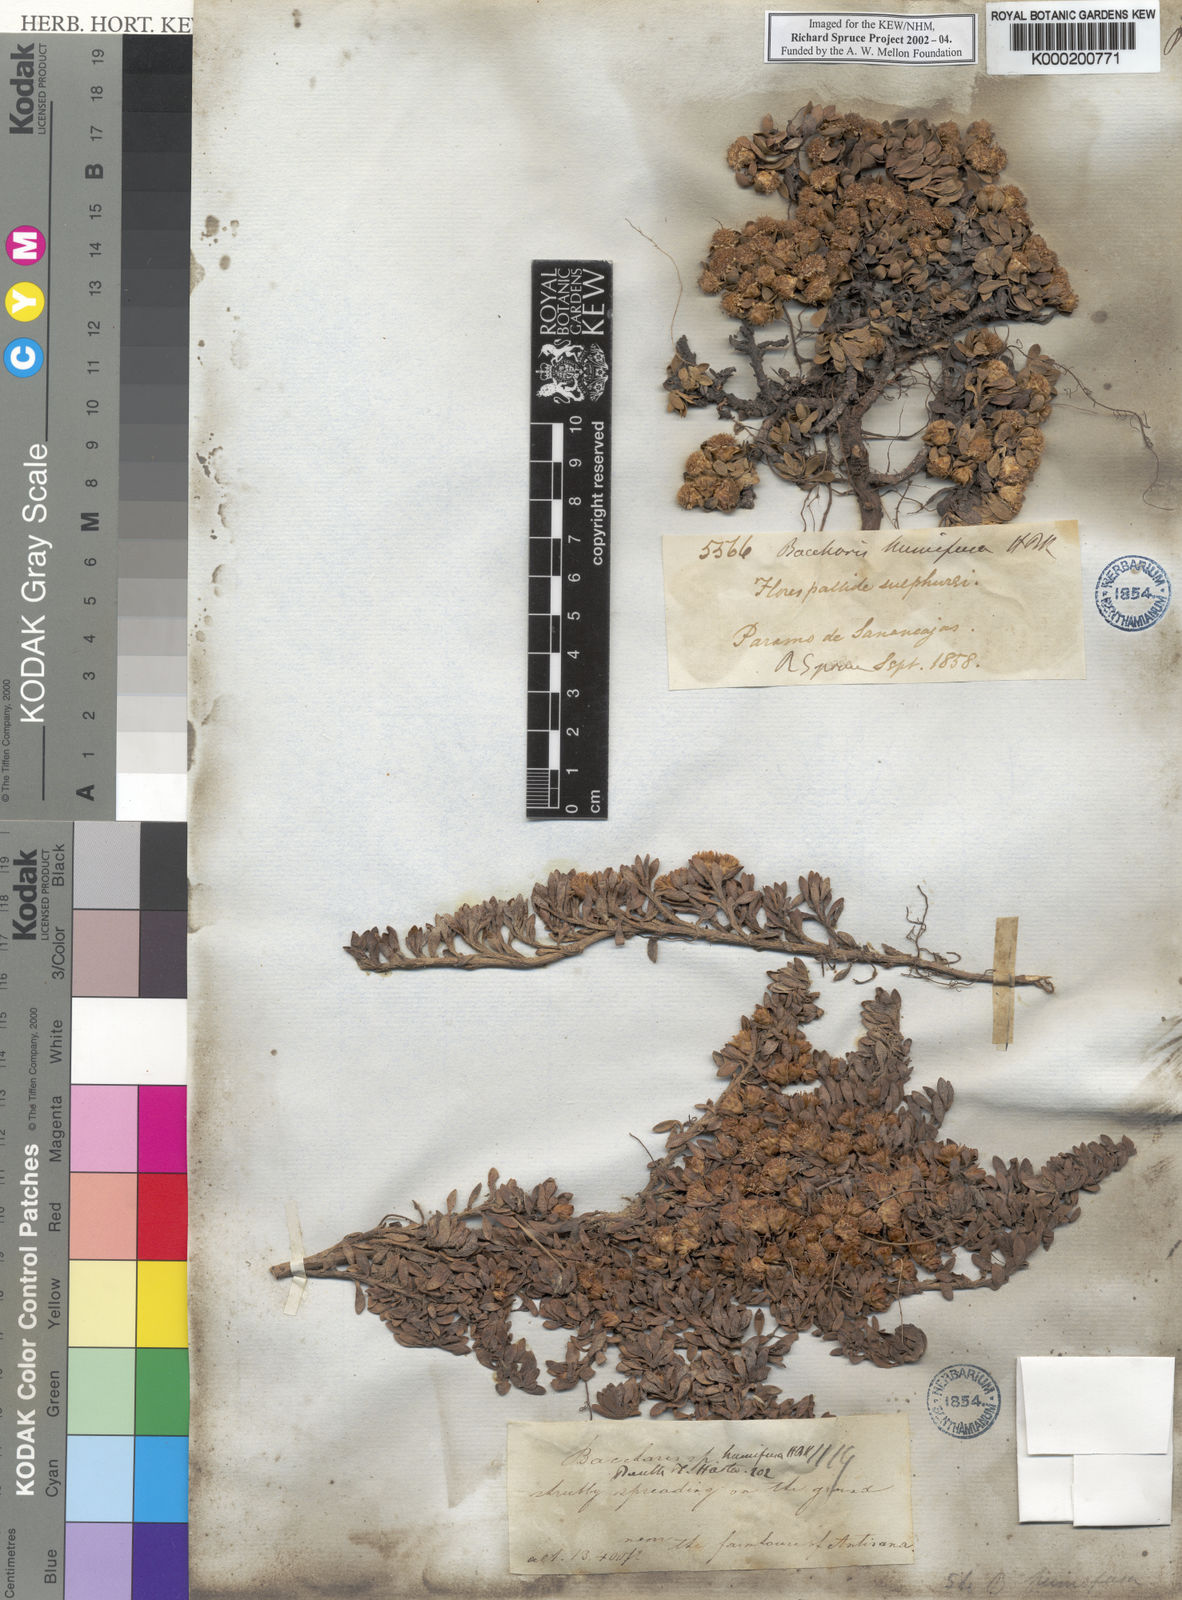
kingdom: Plantae
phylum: Tracheophyta
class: Magnoliopsida
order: Asterales
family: Asteraceae
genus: Baccharis
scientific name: Baccharis alpina
